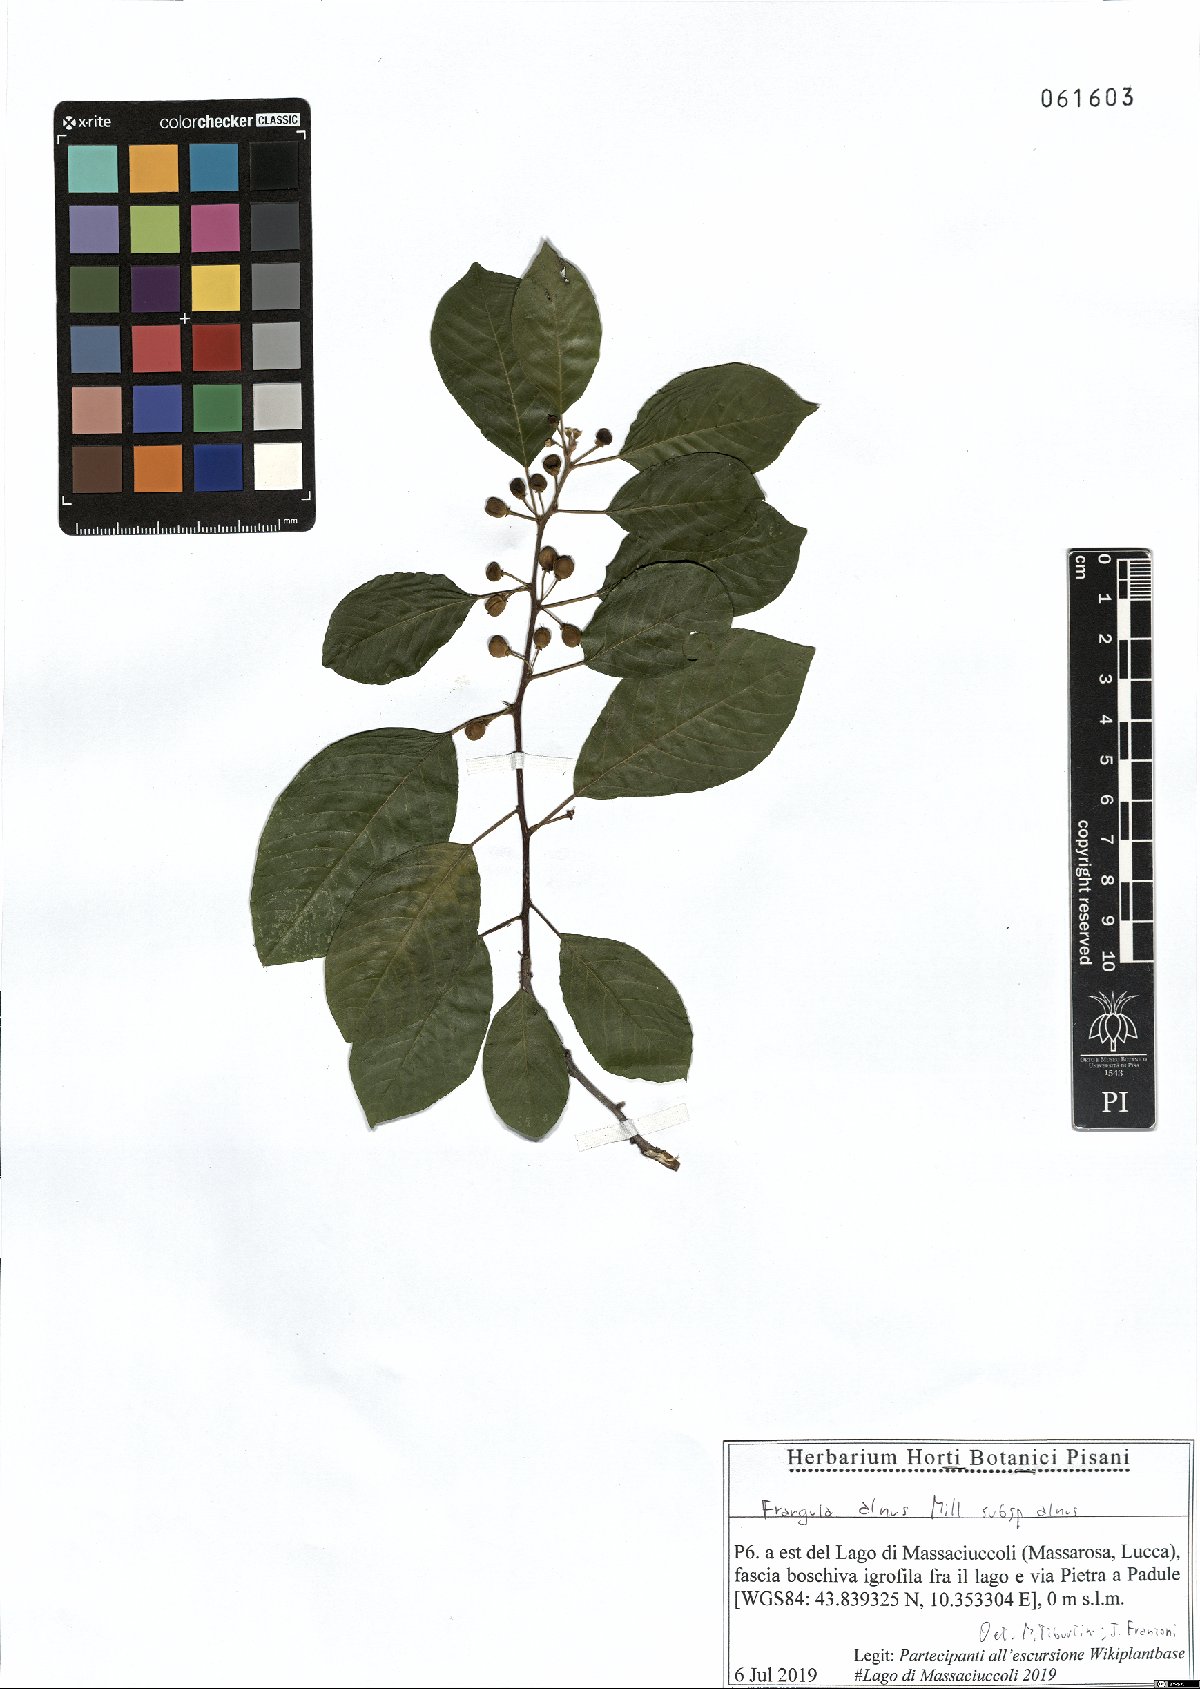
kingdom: Plantae
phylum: Tracheophyta
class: Magnoliopsida
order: Rosales
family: Rhamnaceae
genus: Frangula
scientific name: Frangula alnus
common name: Alder buckthorn
